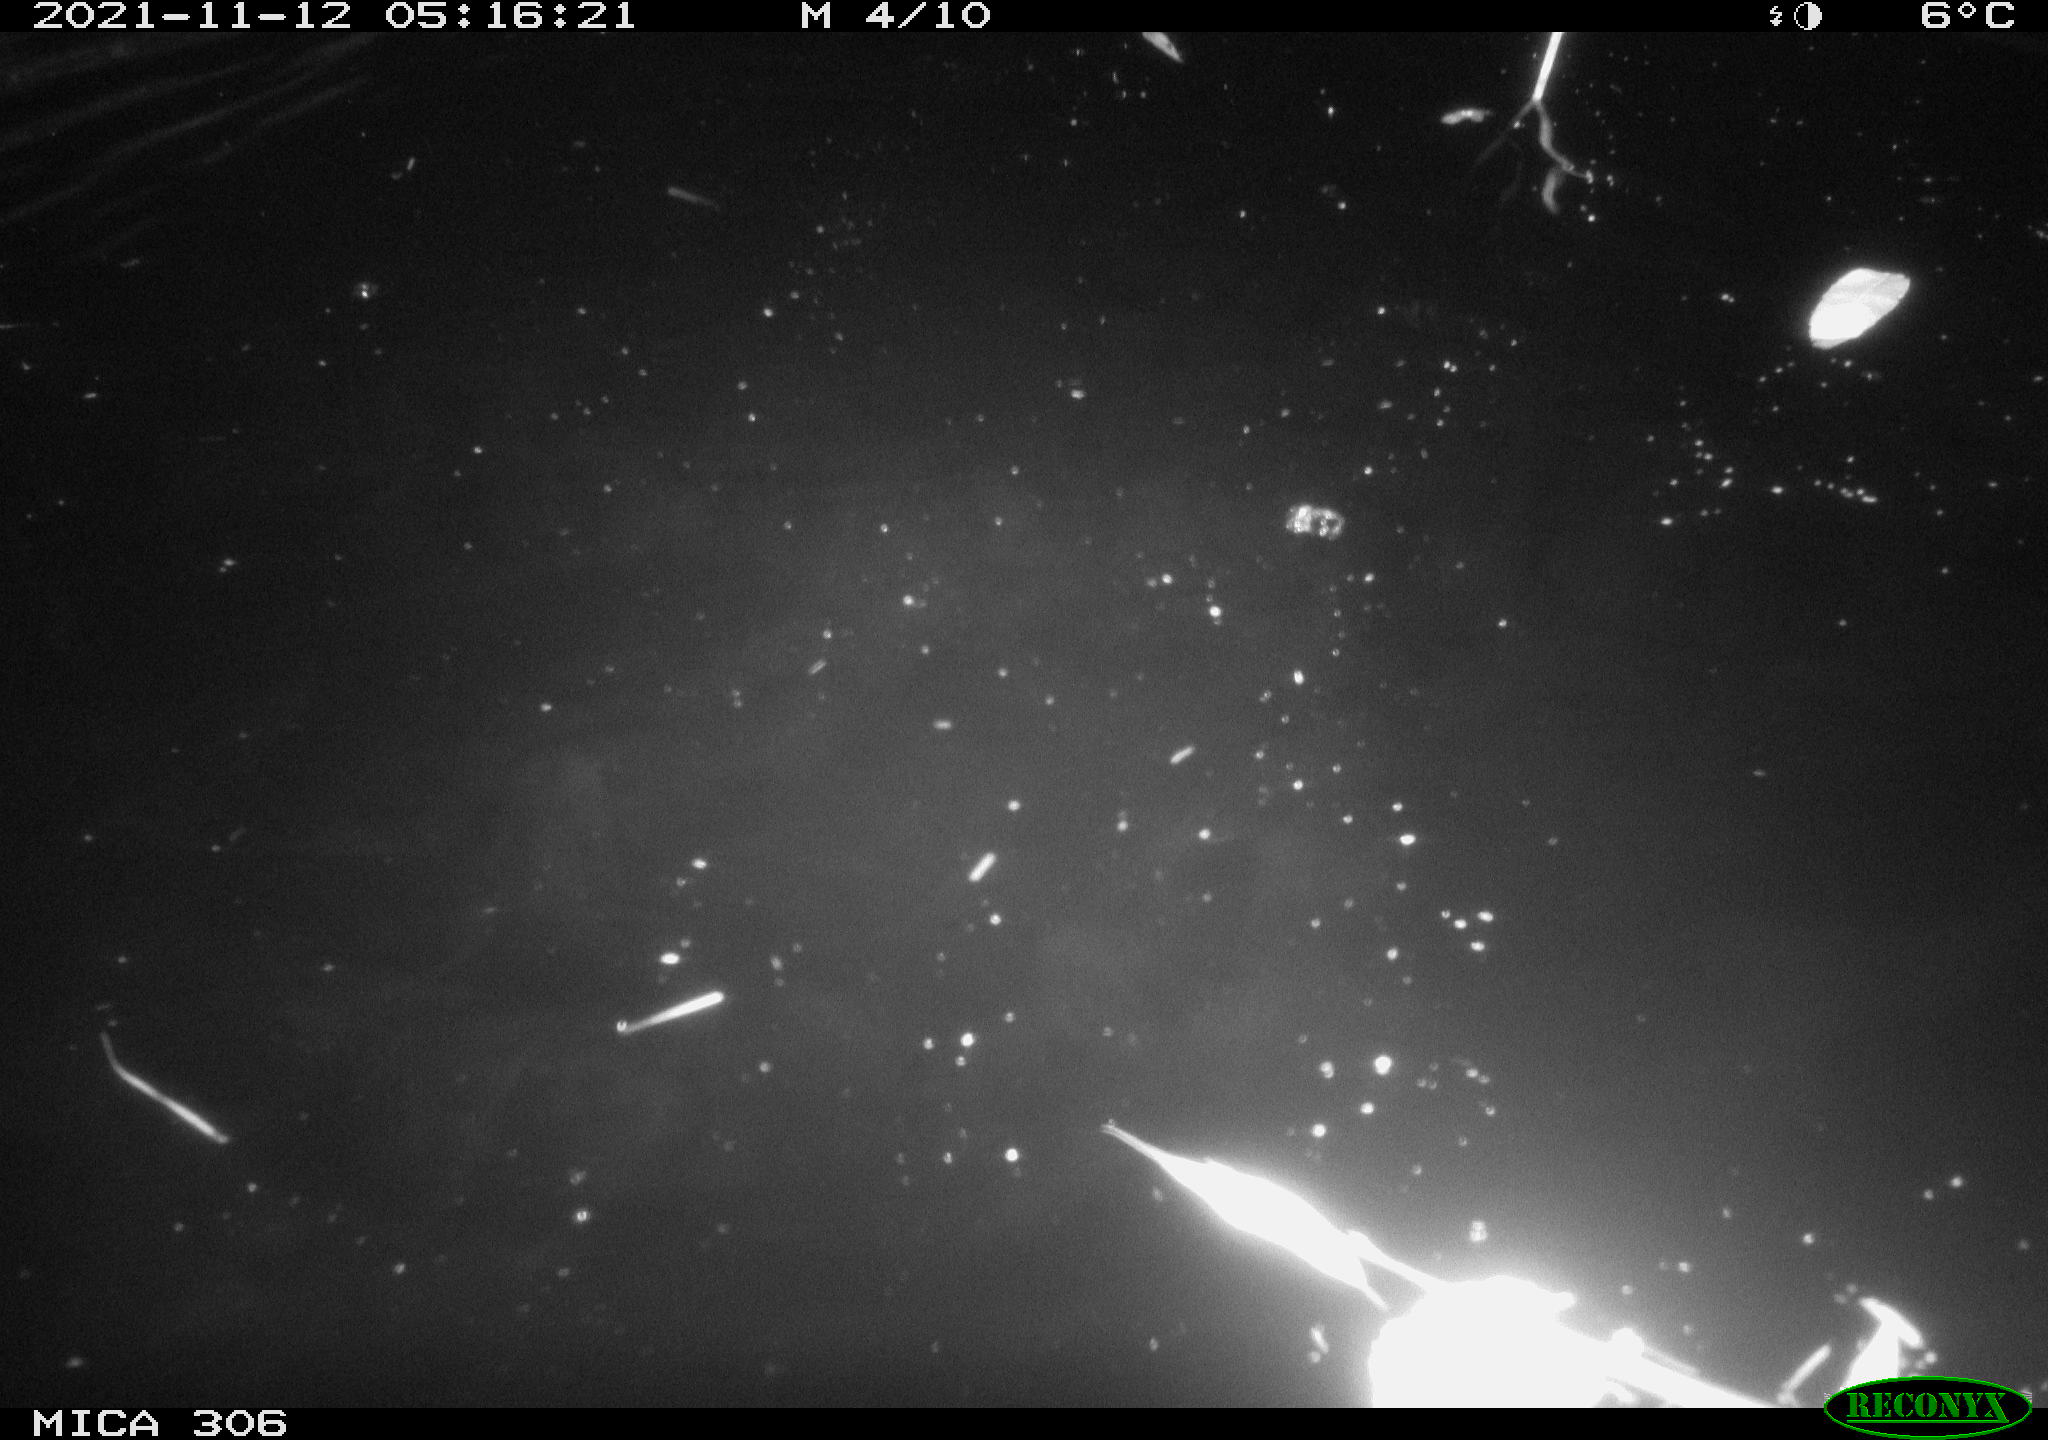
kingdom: Animalia
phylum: Chordata
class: Mammalia
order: Rodentia
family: Cricetidae
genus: Ondatra
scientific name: Ondatra zibethicus
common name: Muskrat
